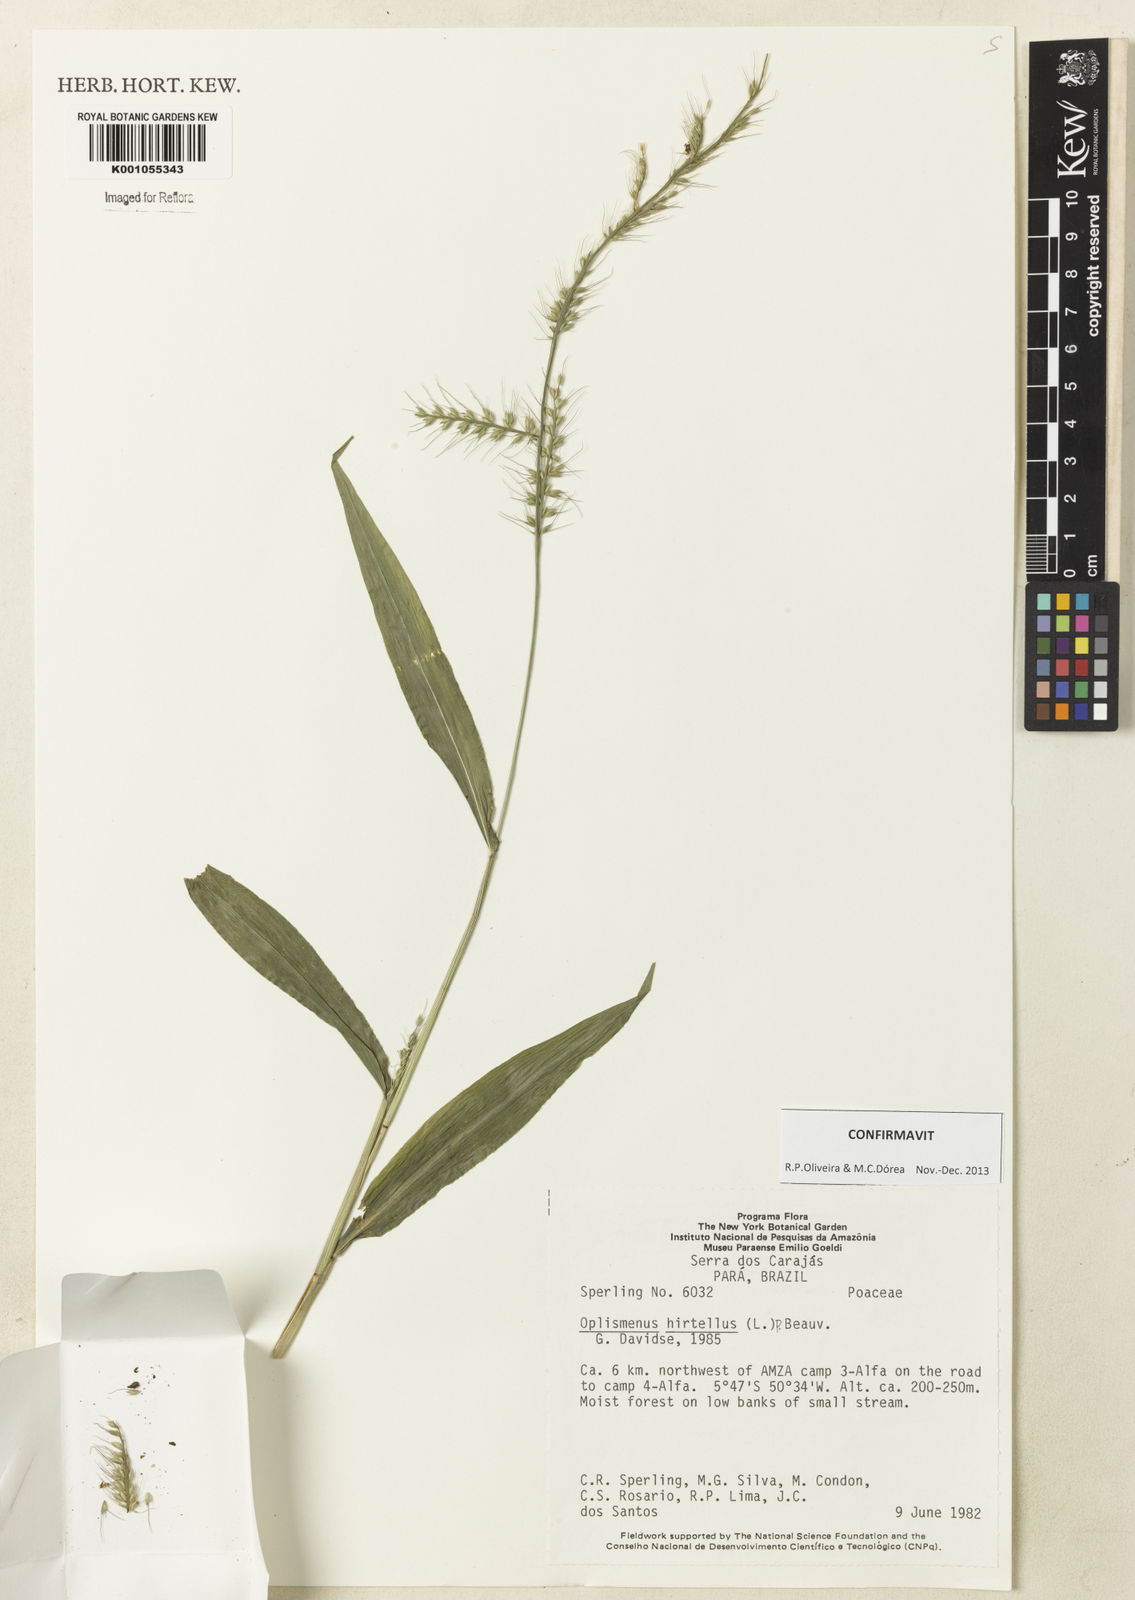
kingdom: Plantae
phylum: Tracheophyta
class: Liliopsida
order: Poales
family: Poaceae
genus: Oplismenus
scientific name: Oplismenus hirtellus
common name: Basketgrass
